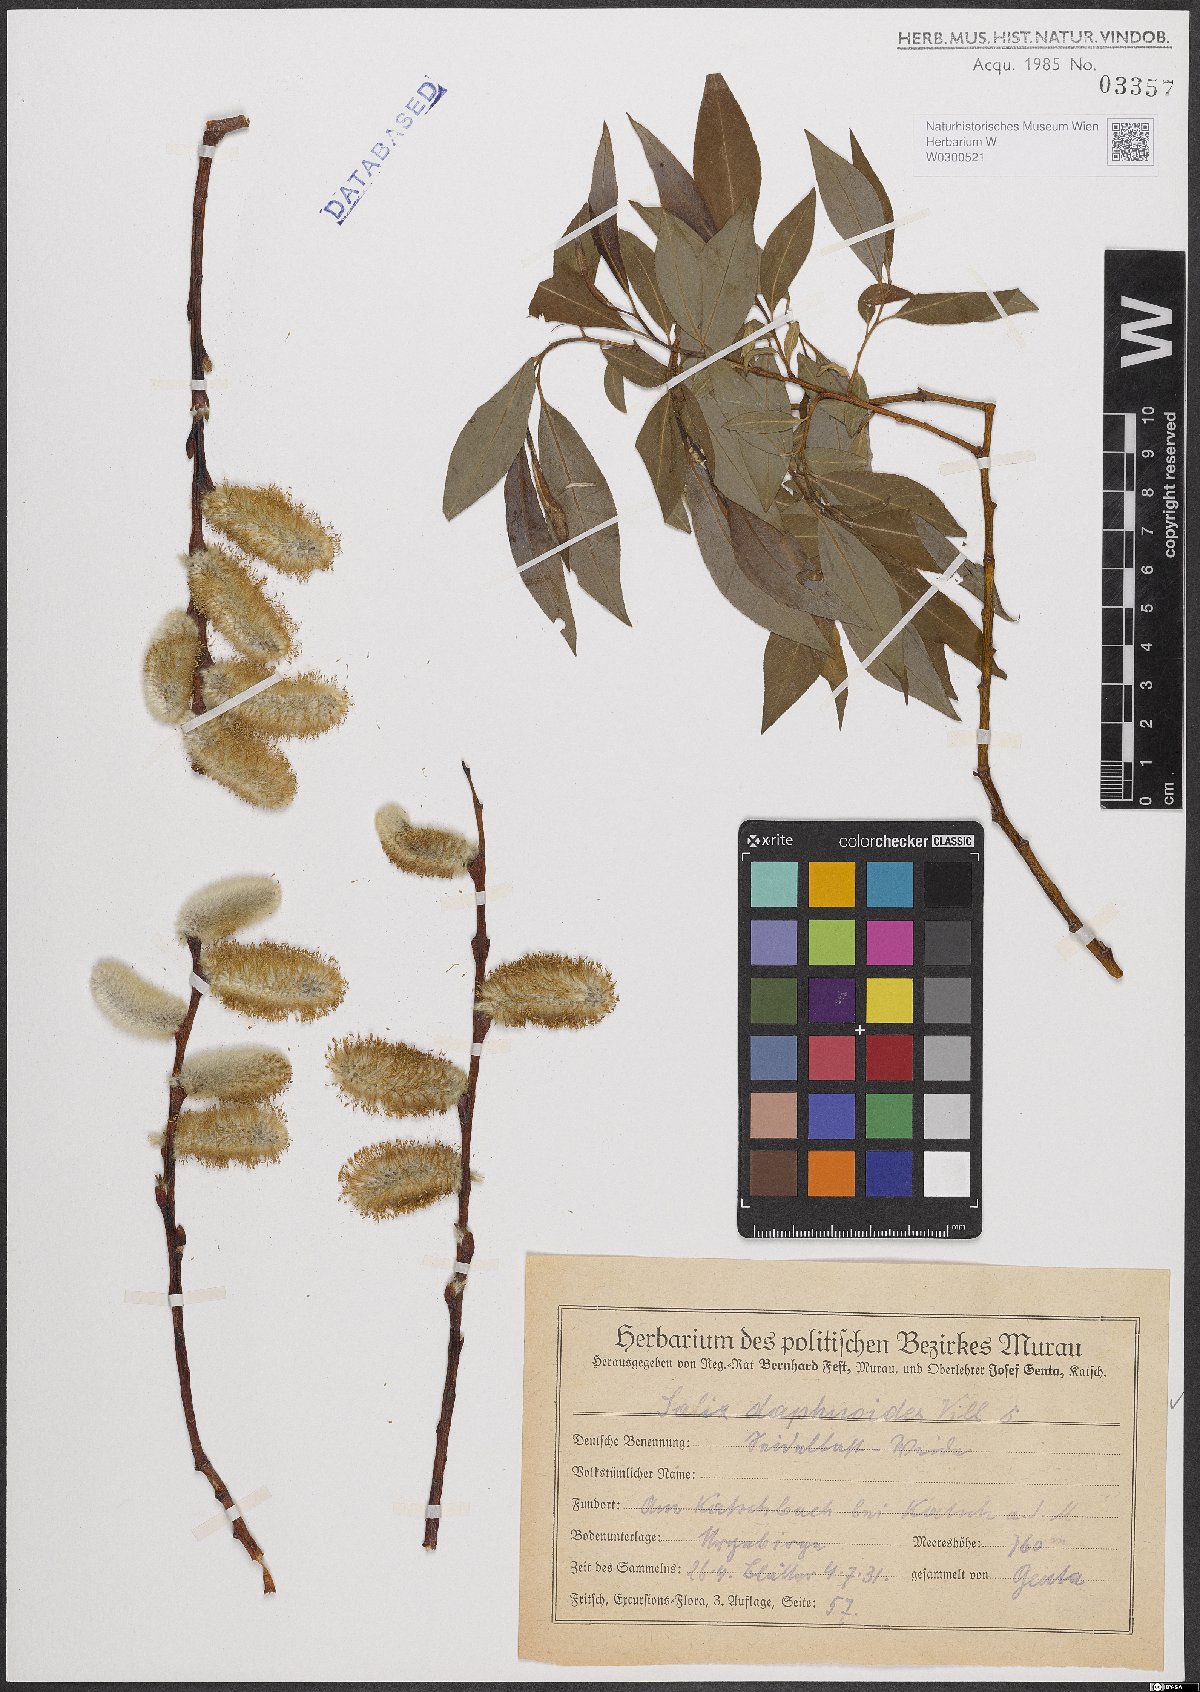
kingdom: Plantae
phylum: Tracheophyta
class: Magnoliopsida
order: Malpighiales
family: Salicaceae
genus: Salix
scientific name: Salix daphnoides
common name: European violet-willow
